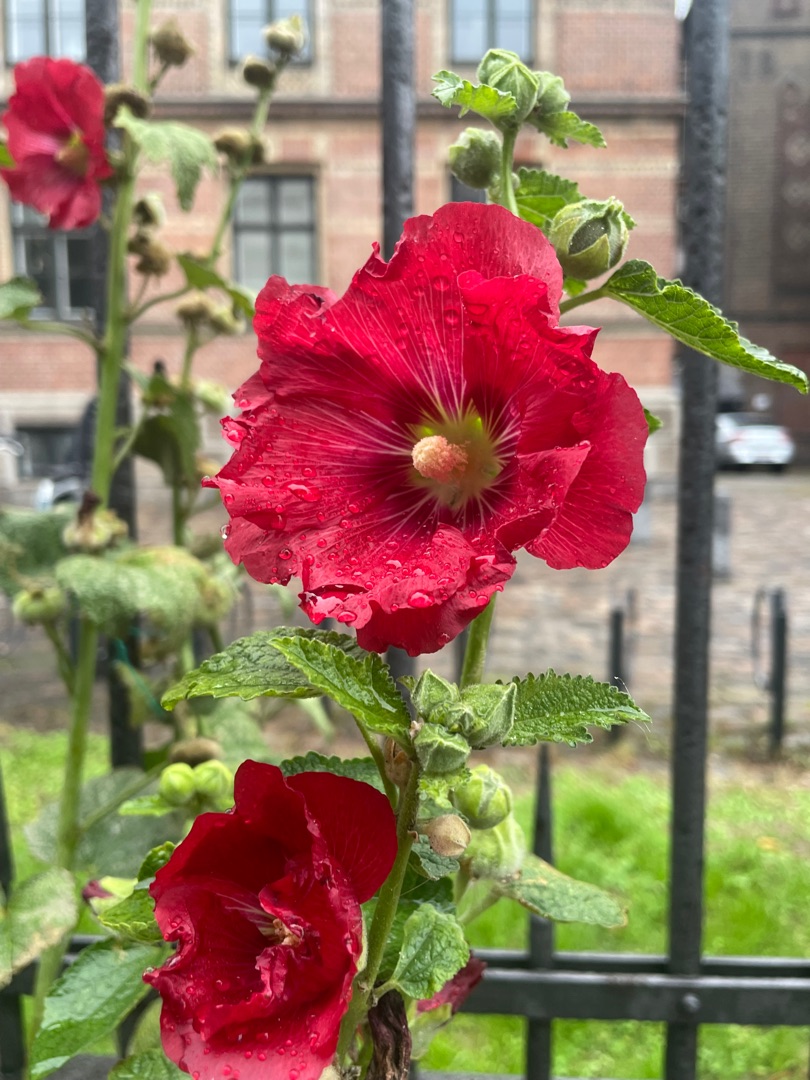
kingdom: Plantae
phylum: Tracheophyta
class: Magnoliopsida
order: Malvales
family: Malvaceae
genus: Alcea
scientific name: Alcea rosea
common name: Have-stokrose
